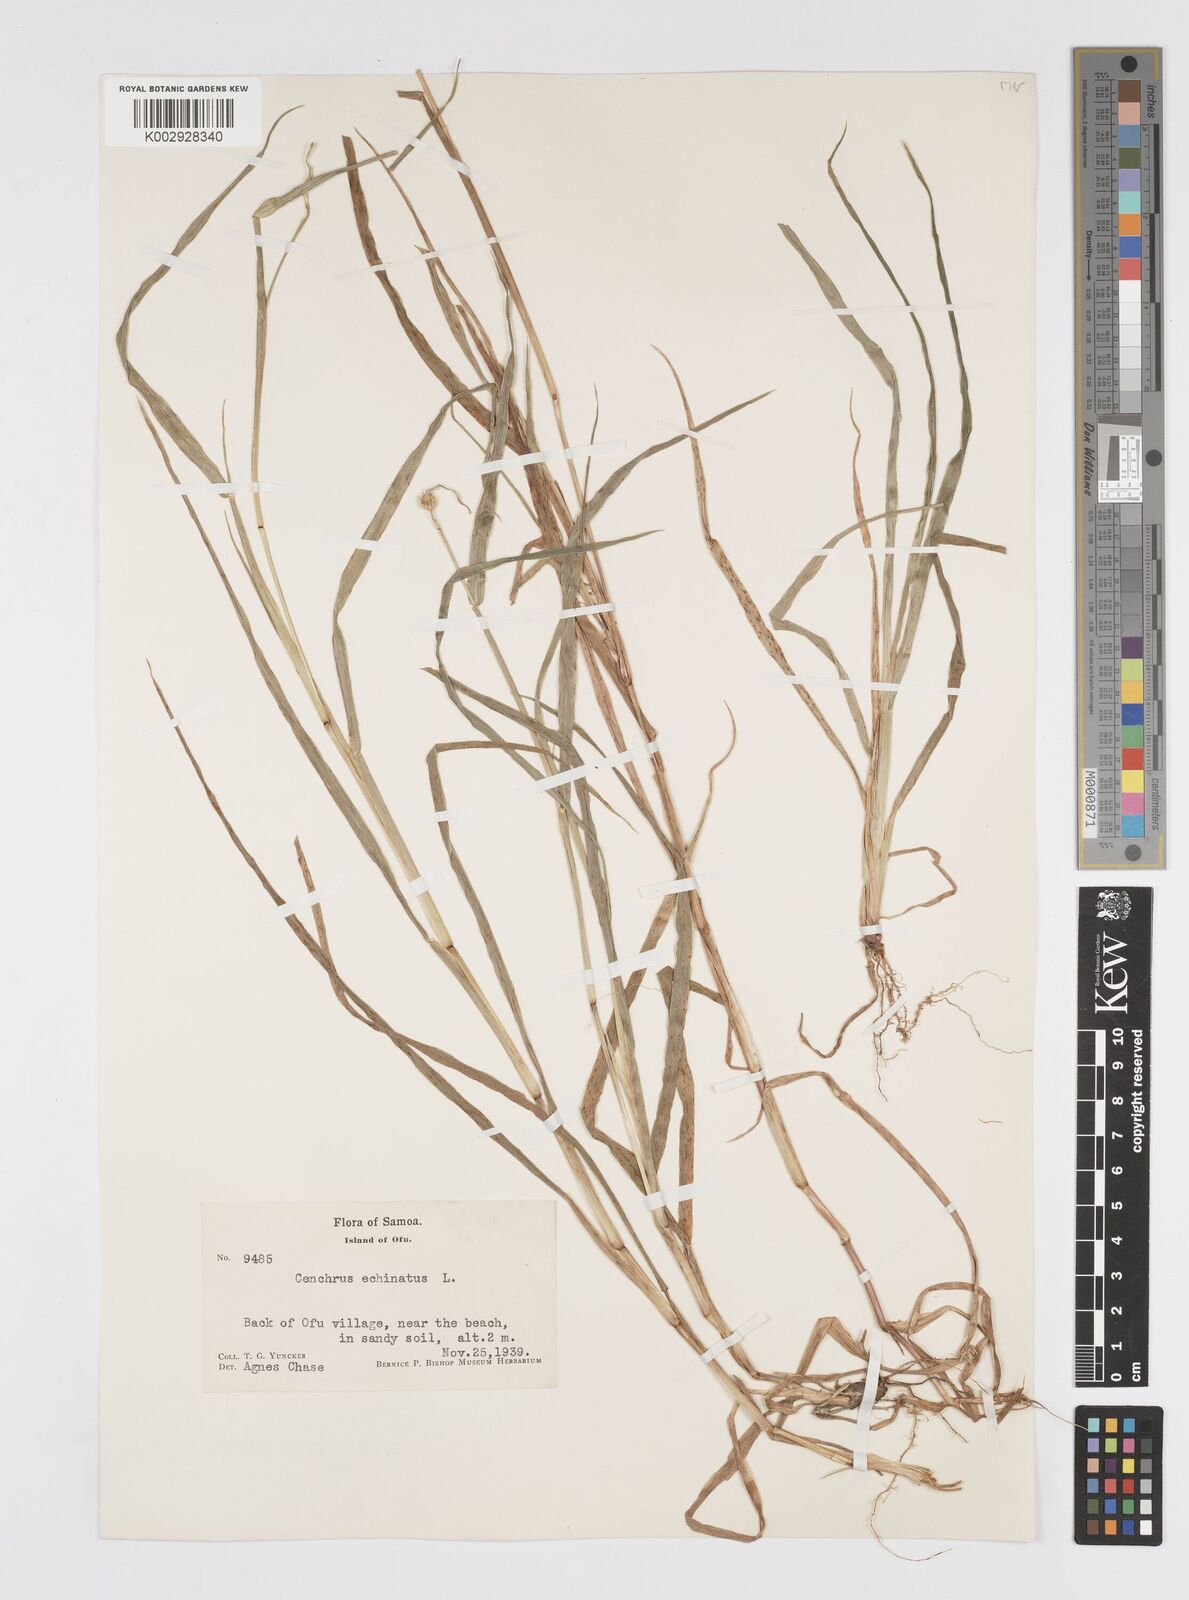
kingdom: Plantae
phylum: Tracheophyta
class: Liliopsida
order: Poales
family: Poaceae
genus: Cenchrus
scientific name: Cenchrus echinatus
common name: Southern sandbur
